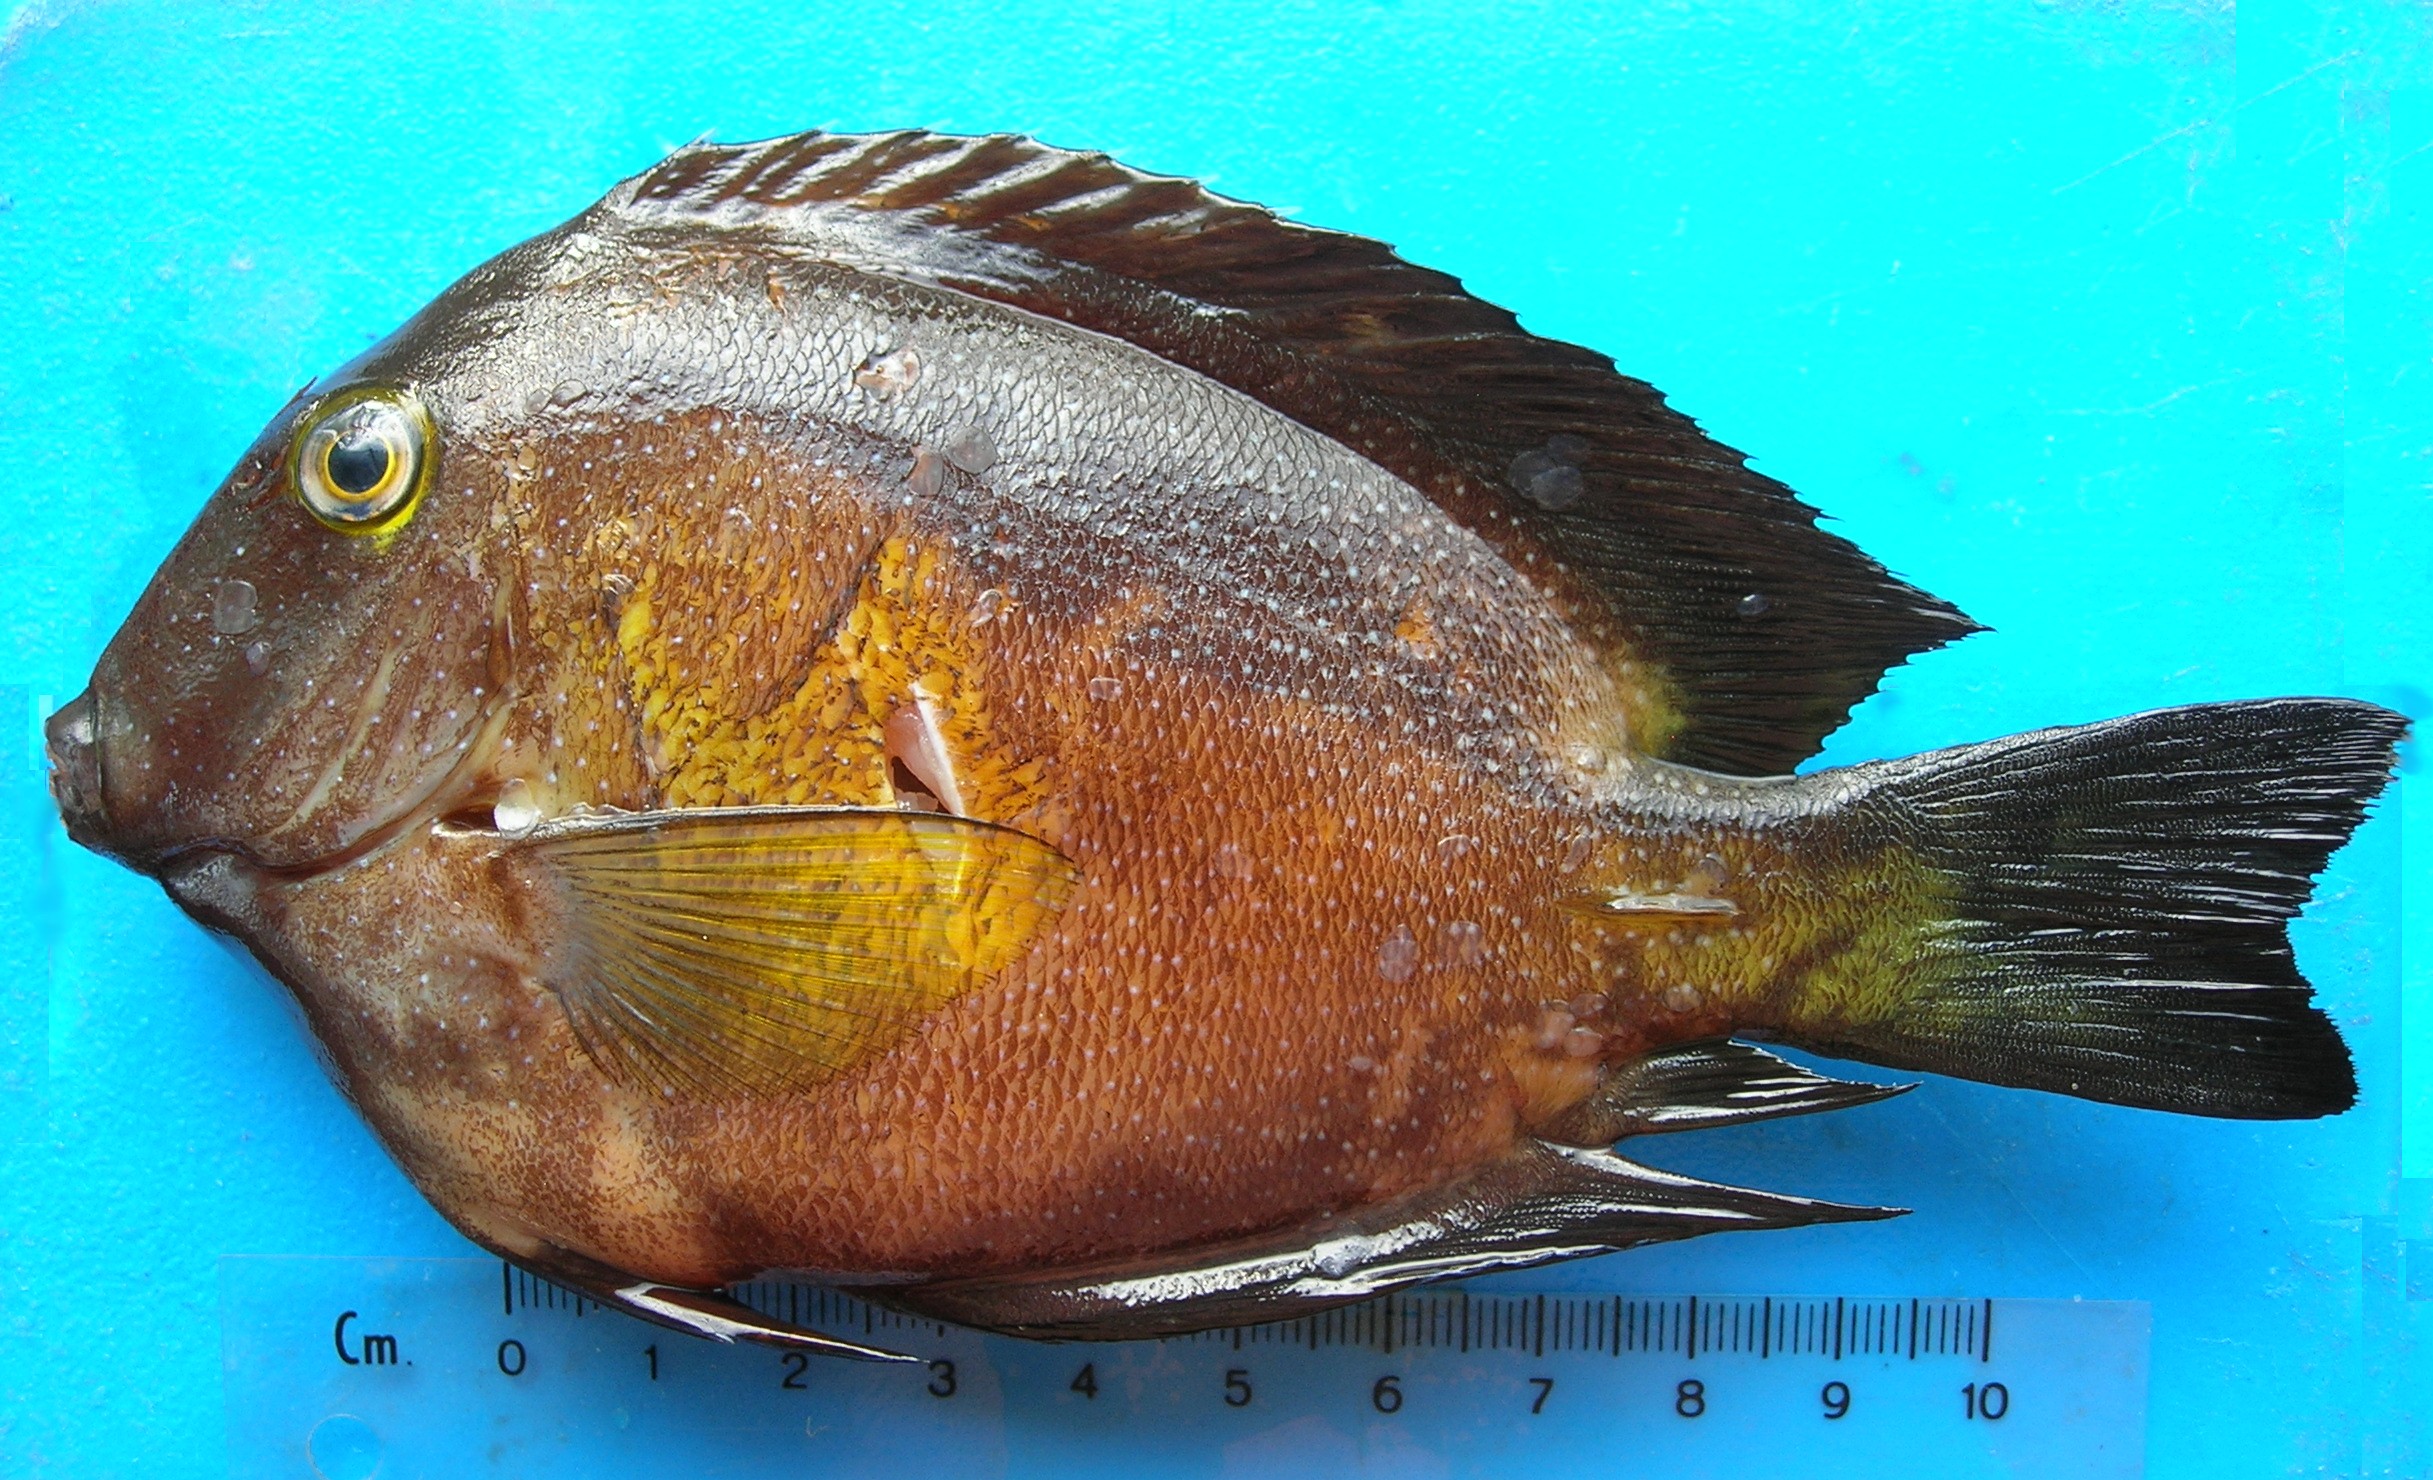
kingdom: Animalia
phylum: Chordata
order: Perciformes
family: Acanthuridae
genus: Ctenochaetus
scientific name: Ctenochaetus truncatus
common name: Indian gold-ring bristle-tooth
